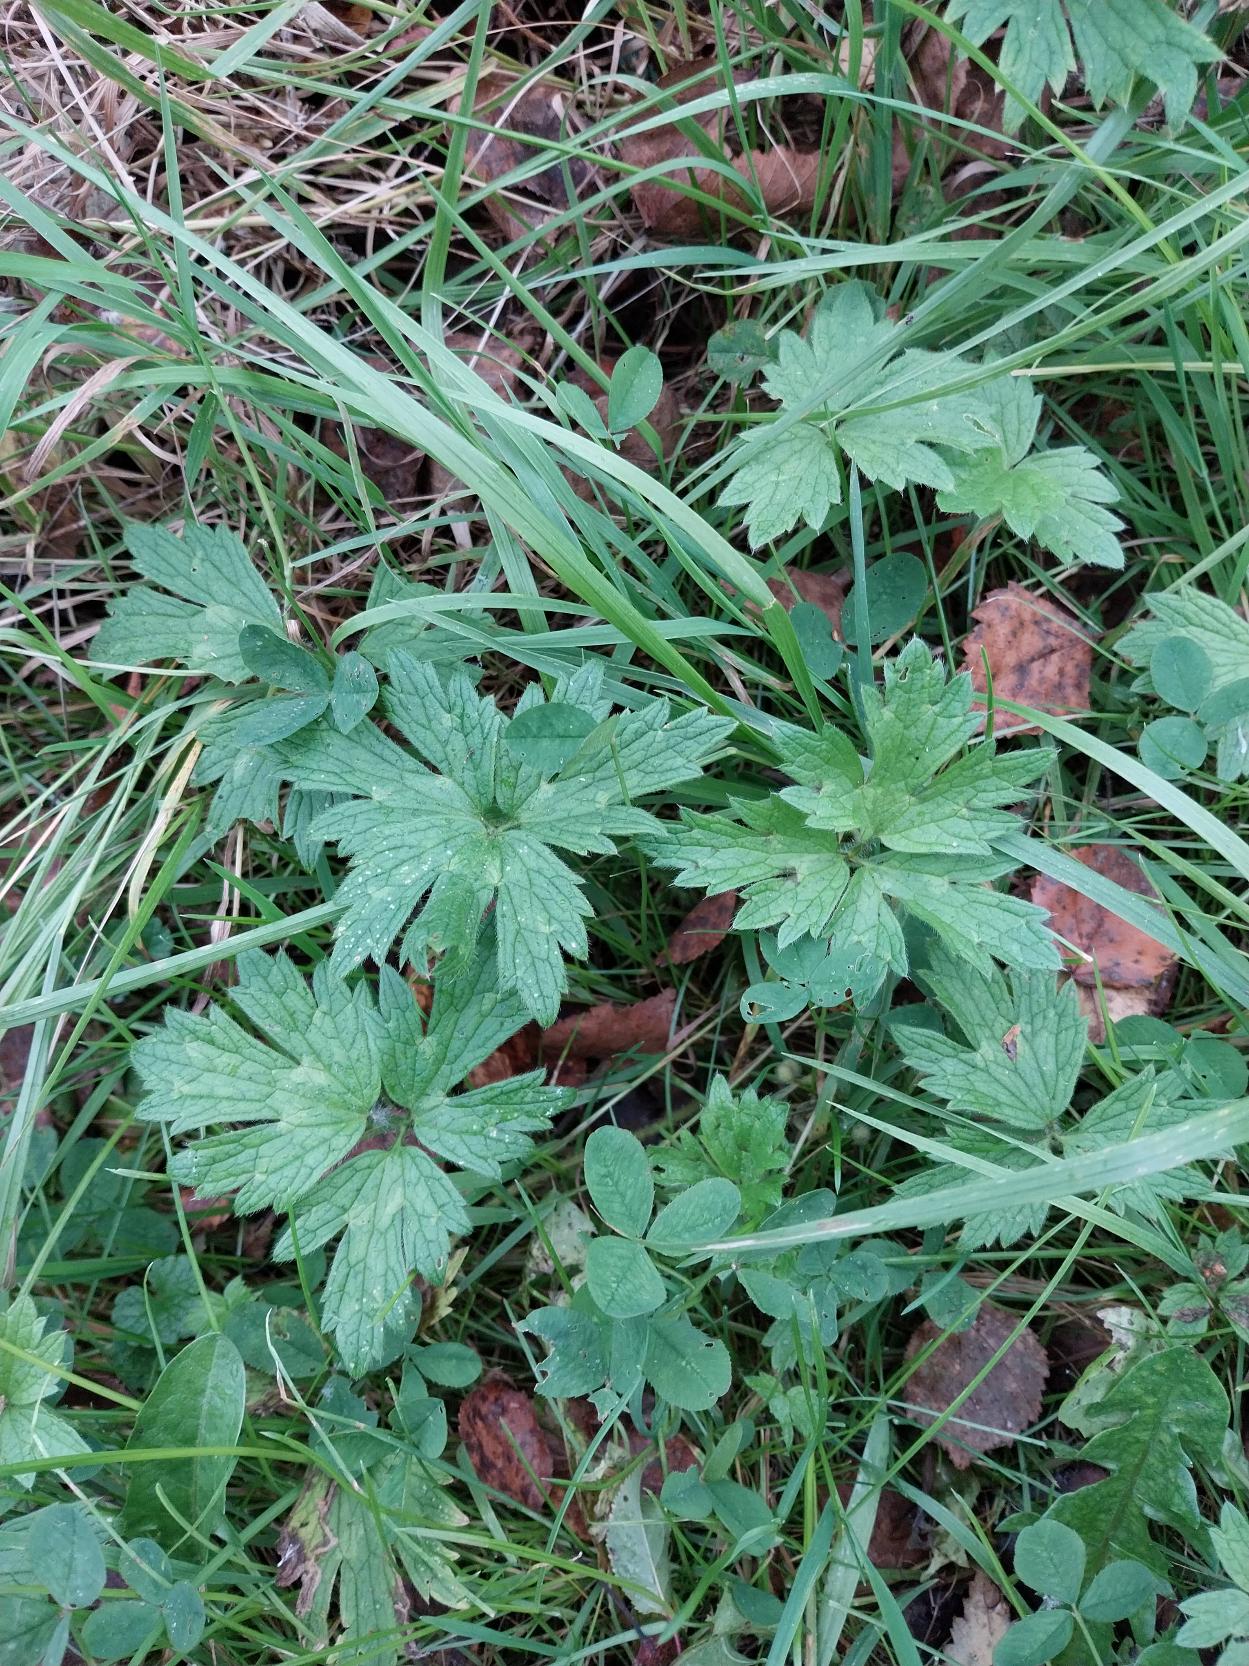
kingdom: Plantae
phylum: Tracheophyta
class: Magnoliopsida
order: Ranunculales
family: Ranunculaceae
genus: Ranunculus
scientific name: Ranunculus repens
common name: Lav ranunkel
